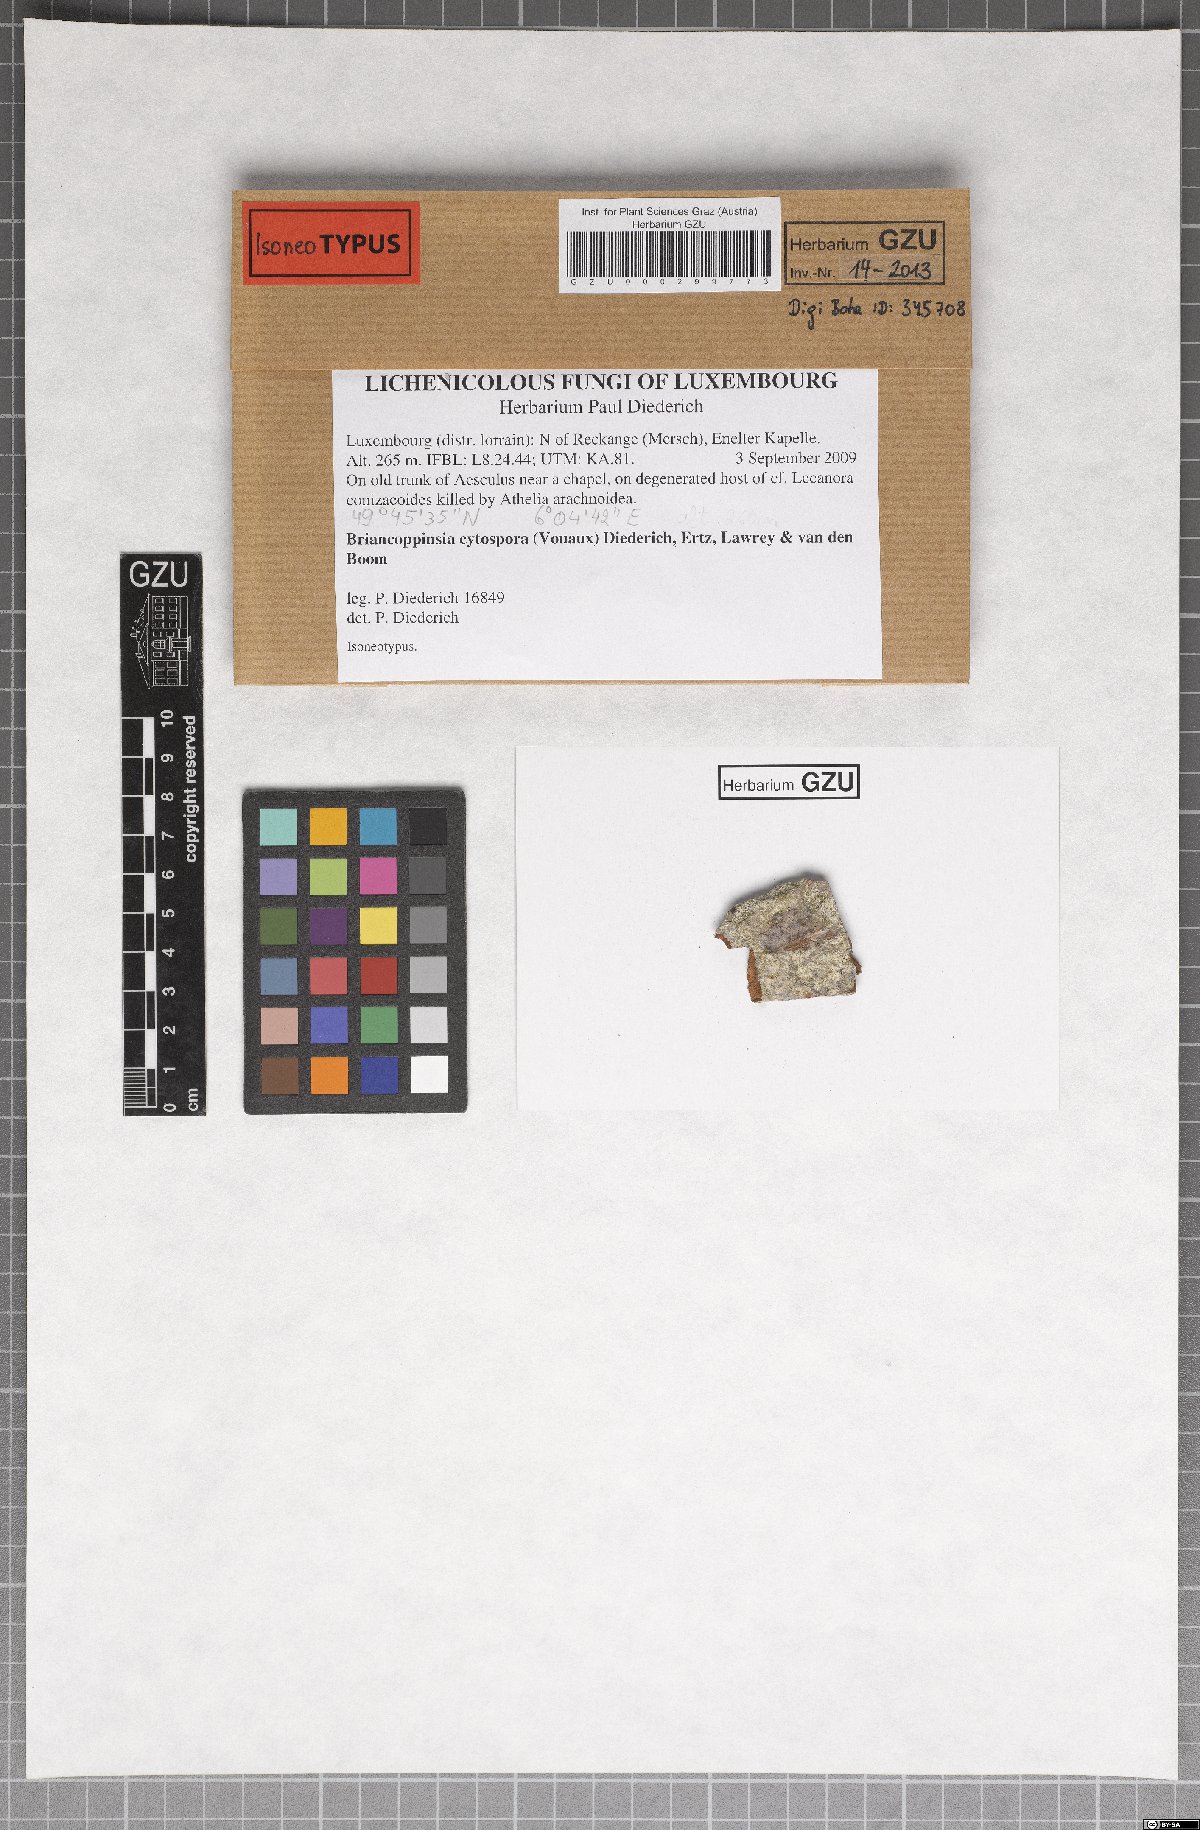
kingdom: Fungi
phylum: Ascomycota
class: Arthoniomycetes
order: Arthoniales
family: Arthoniaceae
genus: Briancoppinsia
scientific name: Briancoppinsia cytospora
